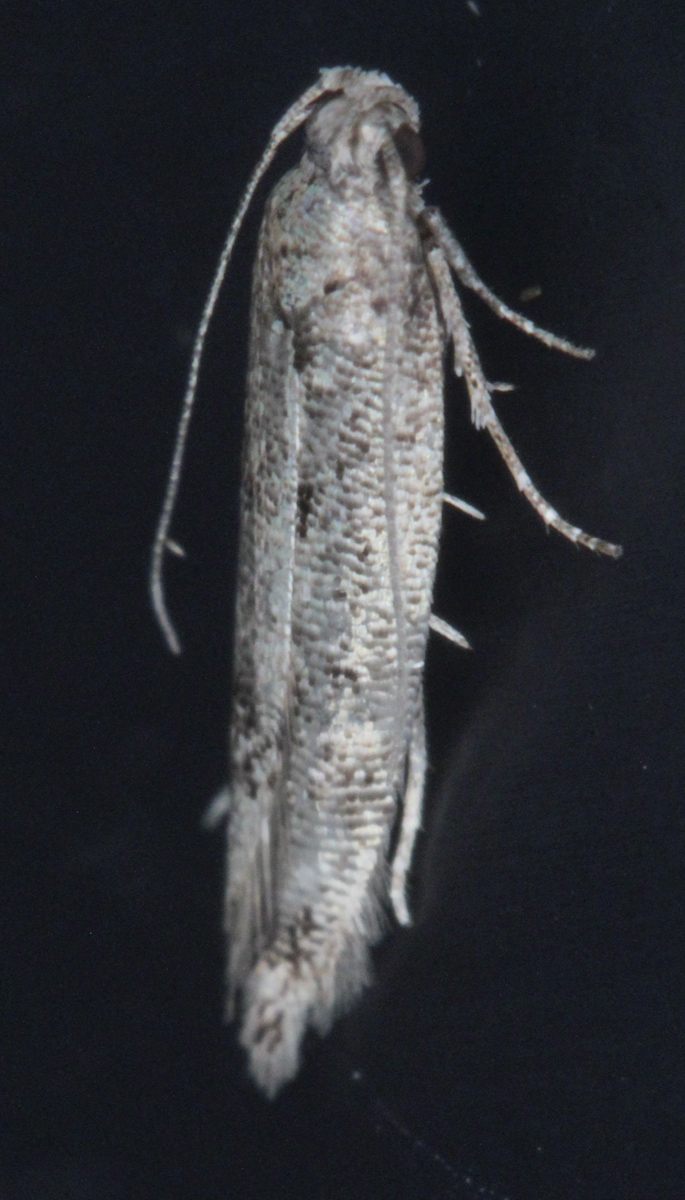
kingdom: Animalia
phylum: Arthropoda
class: Insecta
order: Lepidoptera
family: Batrachedridae
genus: Batrachedra
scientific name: Batrachedra praeangusta
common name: Poplar cosmet
